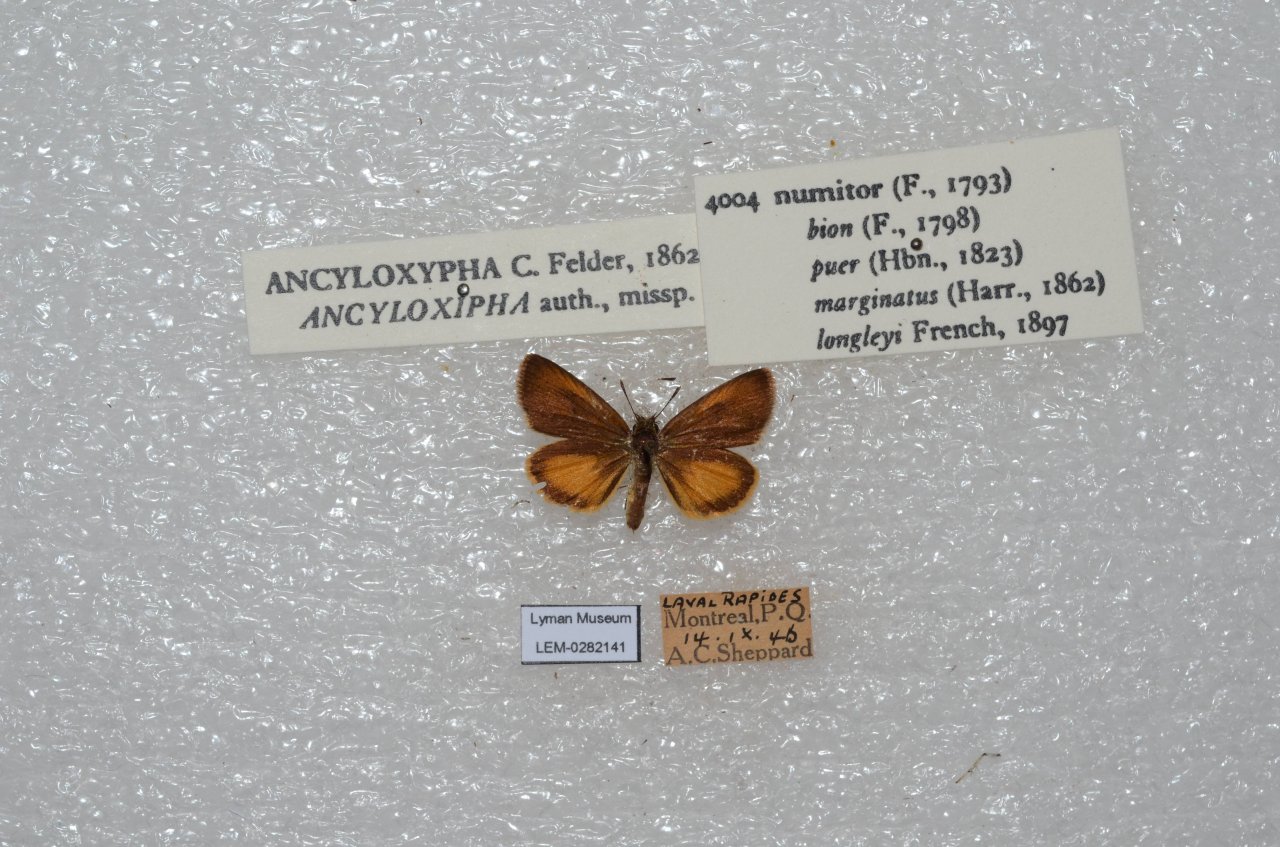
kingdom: Animalia
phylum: Arthropoda
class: Insecta
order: Lepidoptera
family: Hesperiidae
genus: Ancyloxypha
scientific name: Ancyloxypha numitor
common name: Least Skipper
